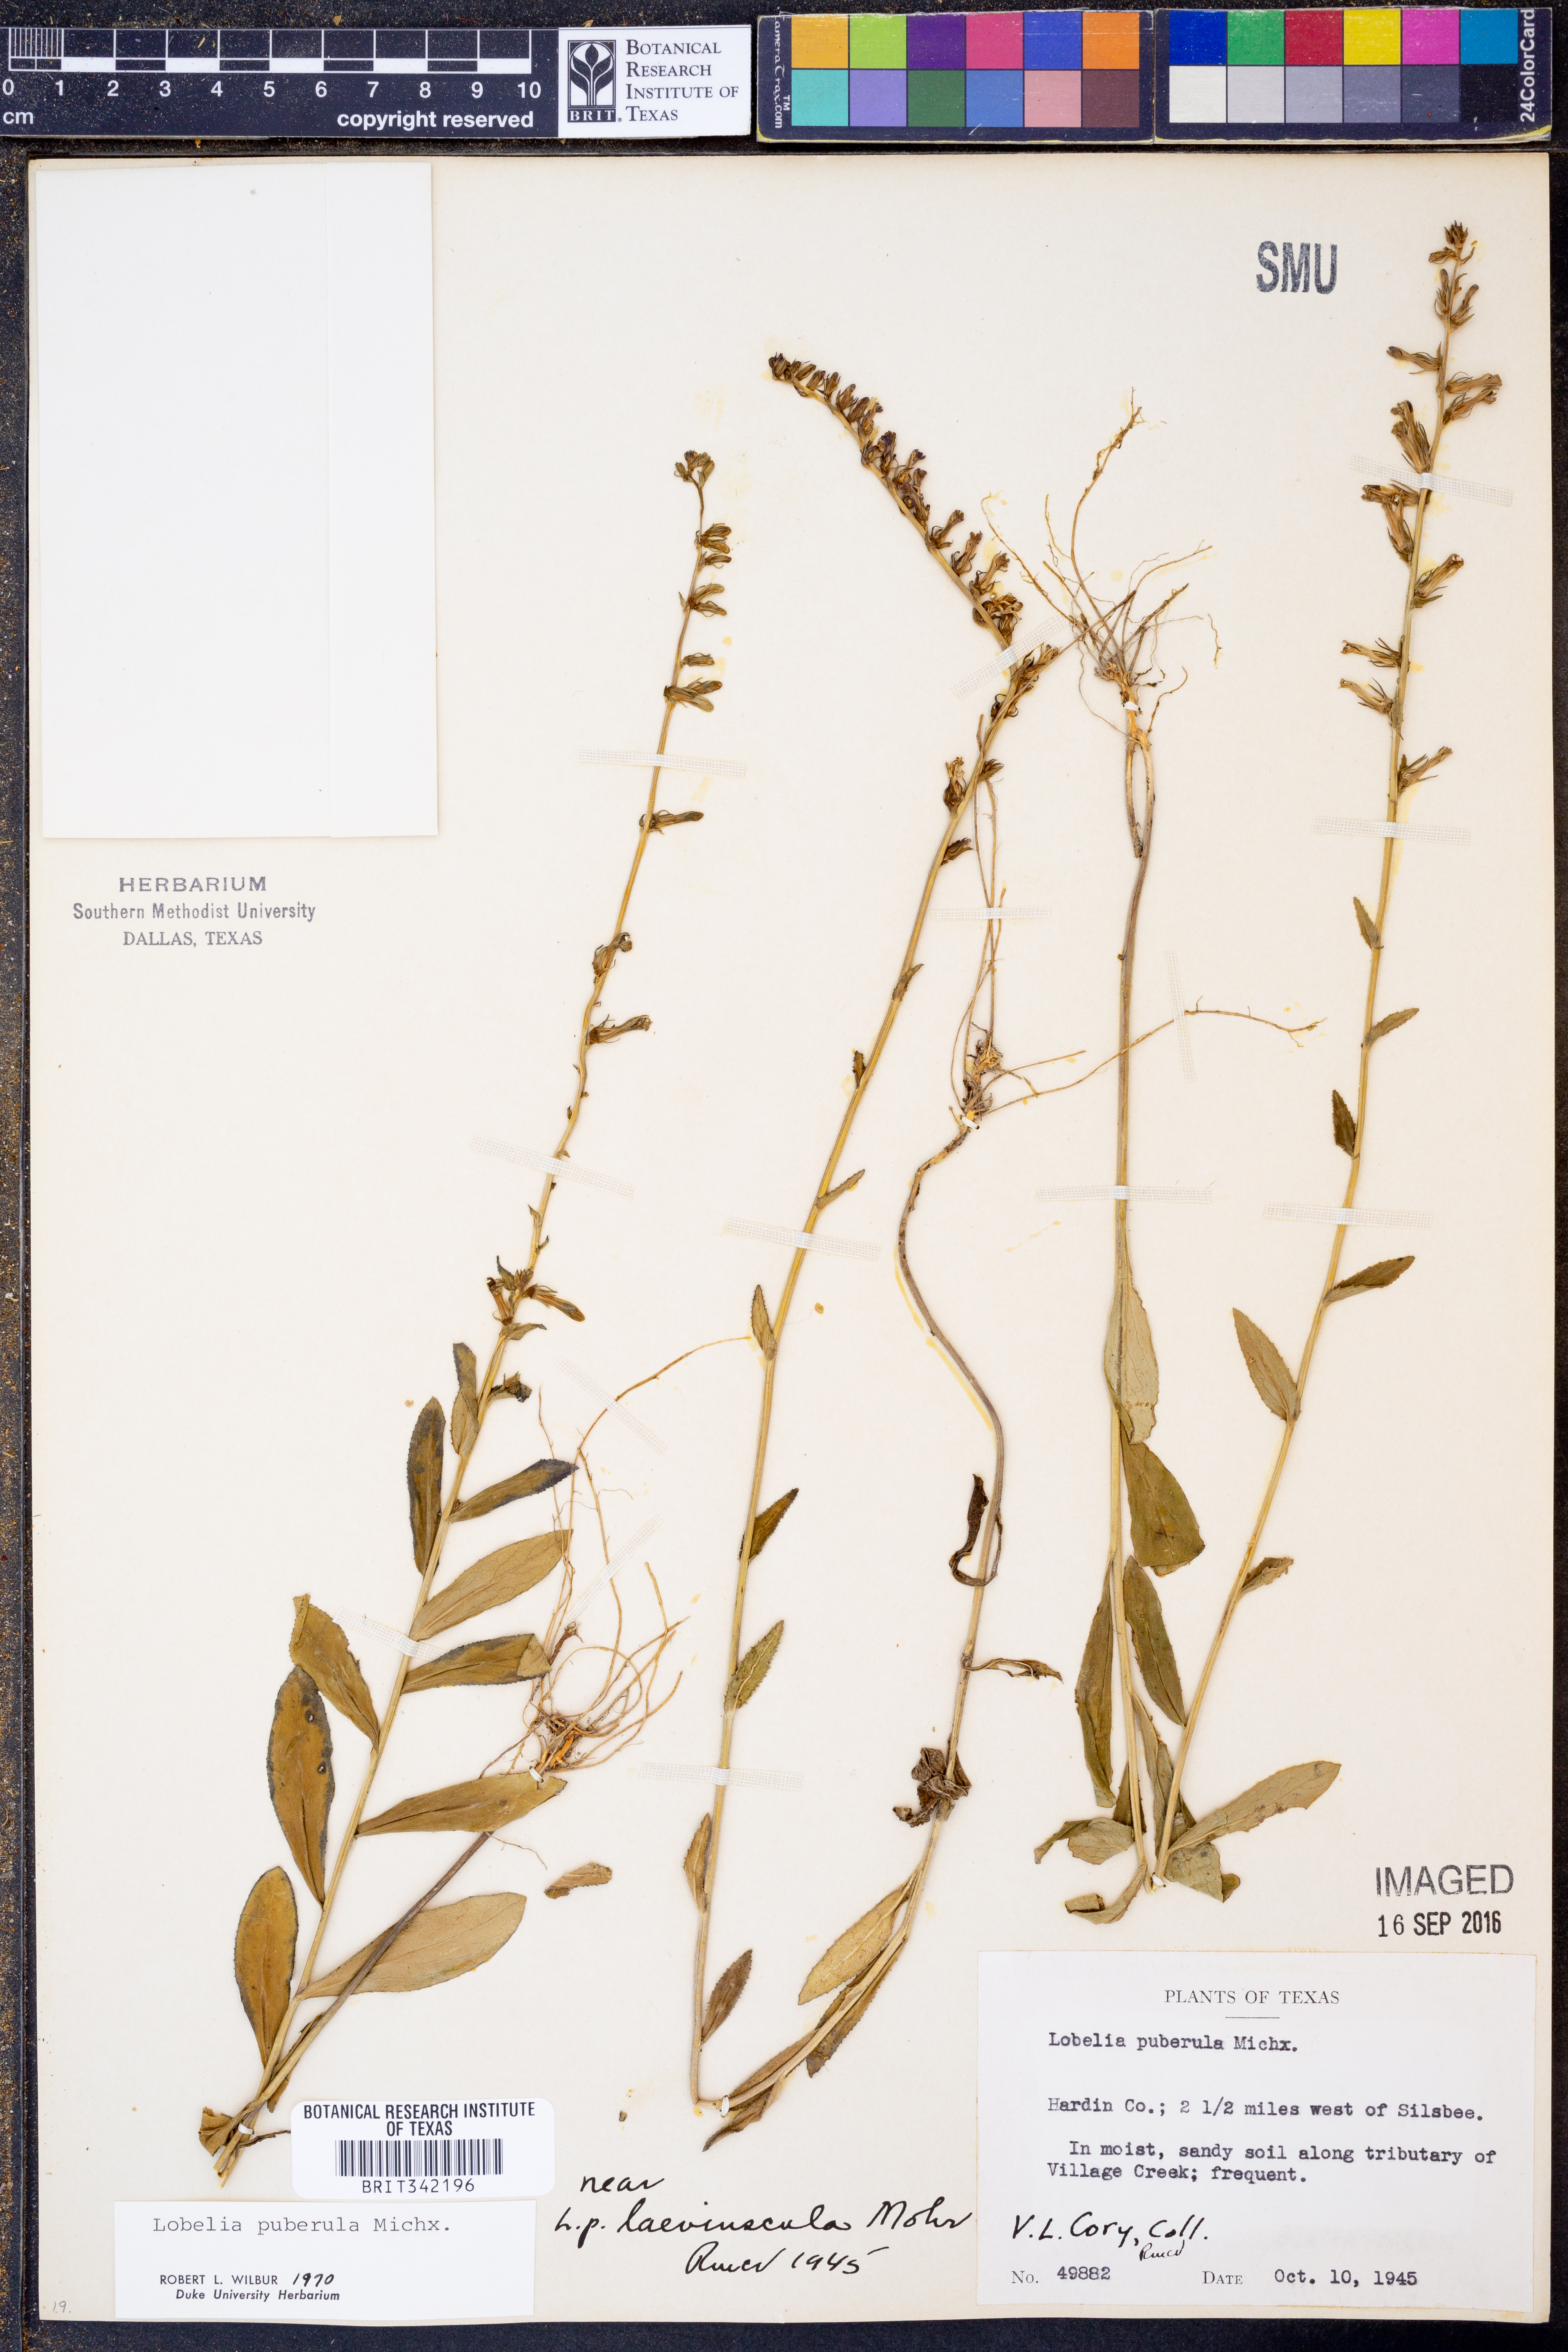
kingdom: Plantae
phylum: Tracheophyta
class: Magnoliopsida
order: Asterales
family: Campanulaceae
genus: Lobelia
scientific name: Lobelia puberula
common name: Purple dewdrop
